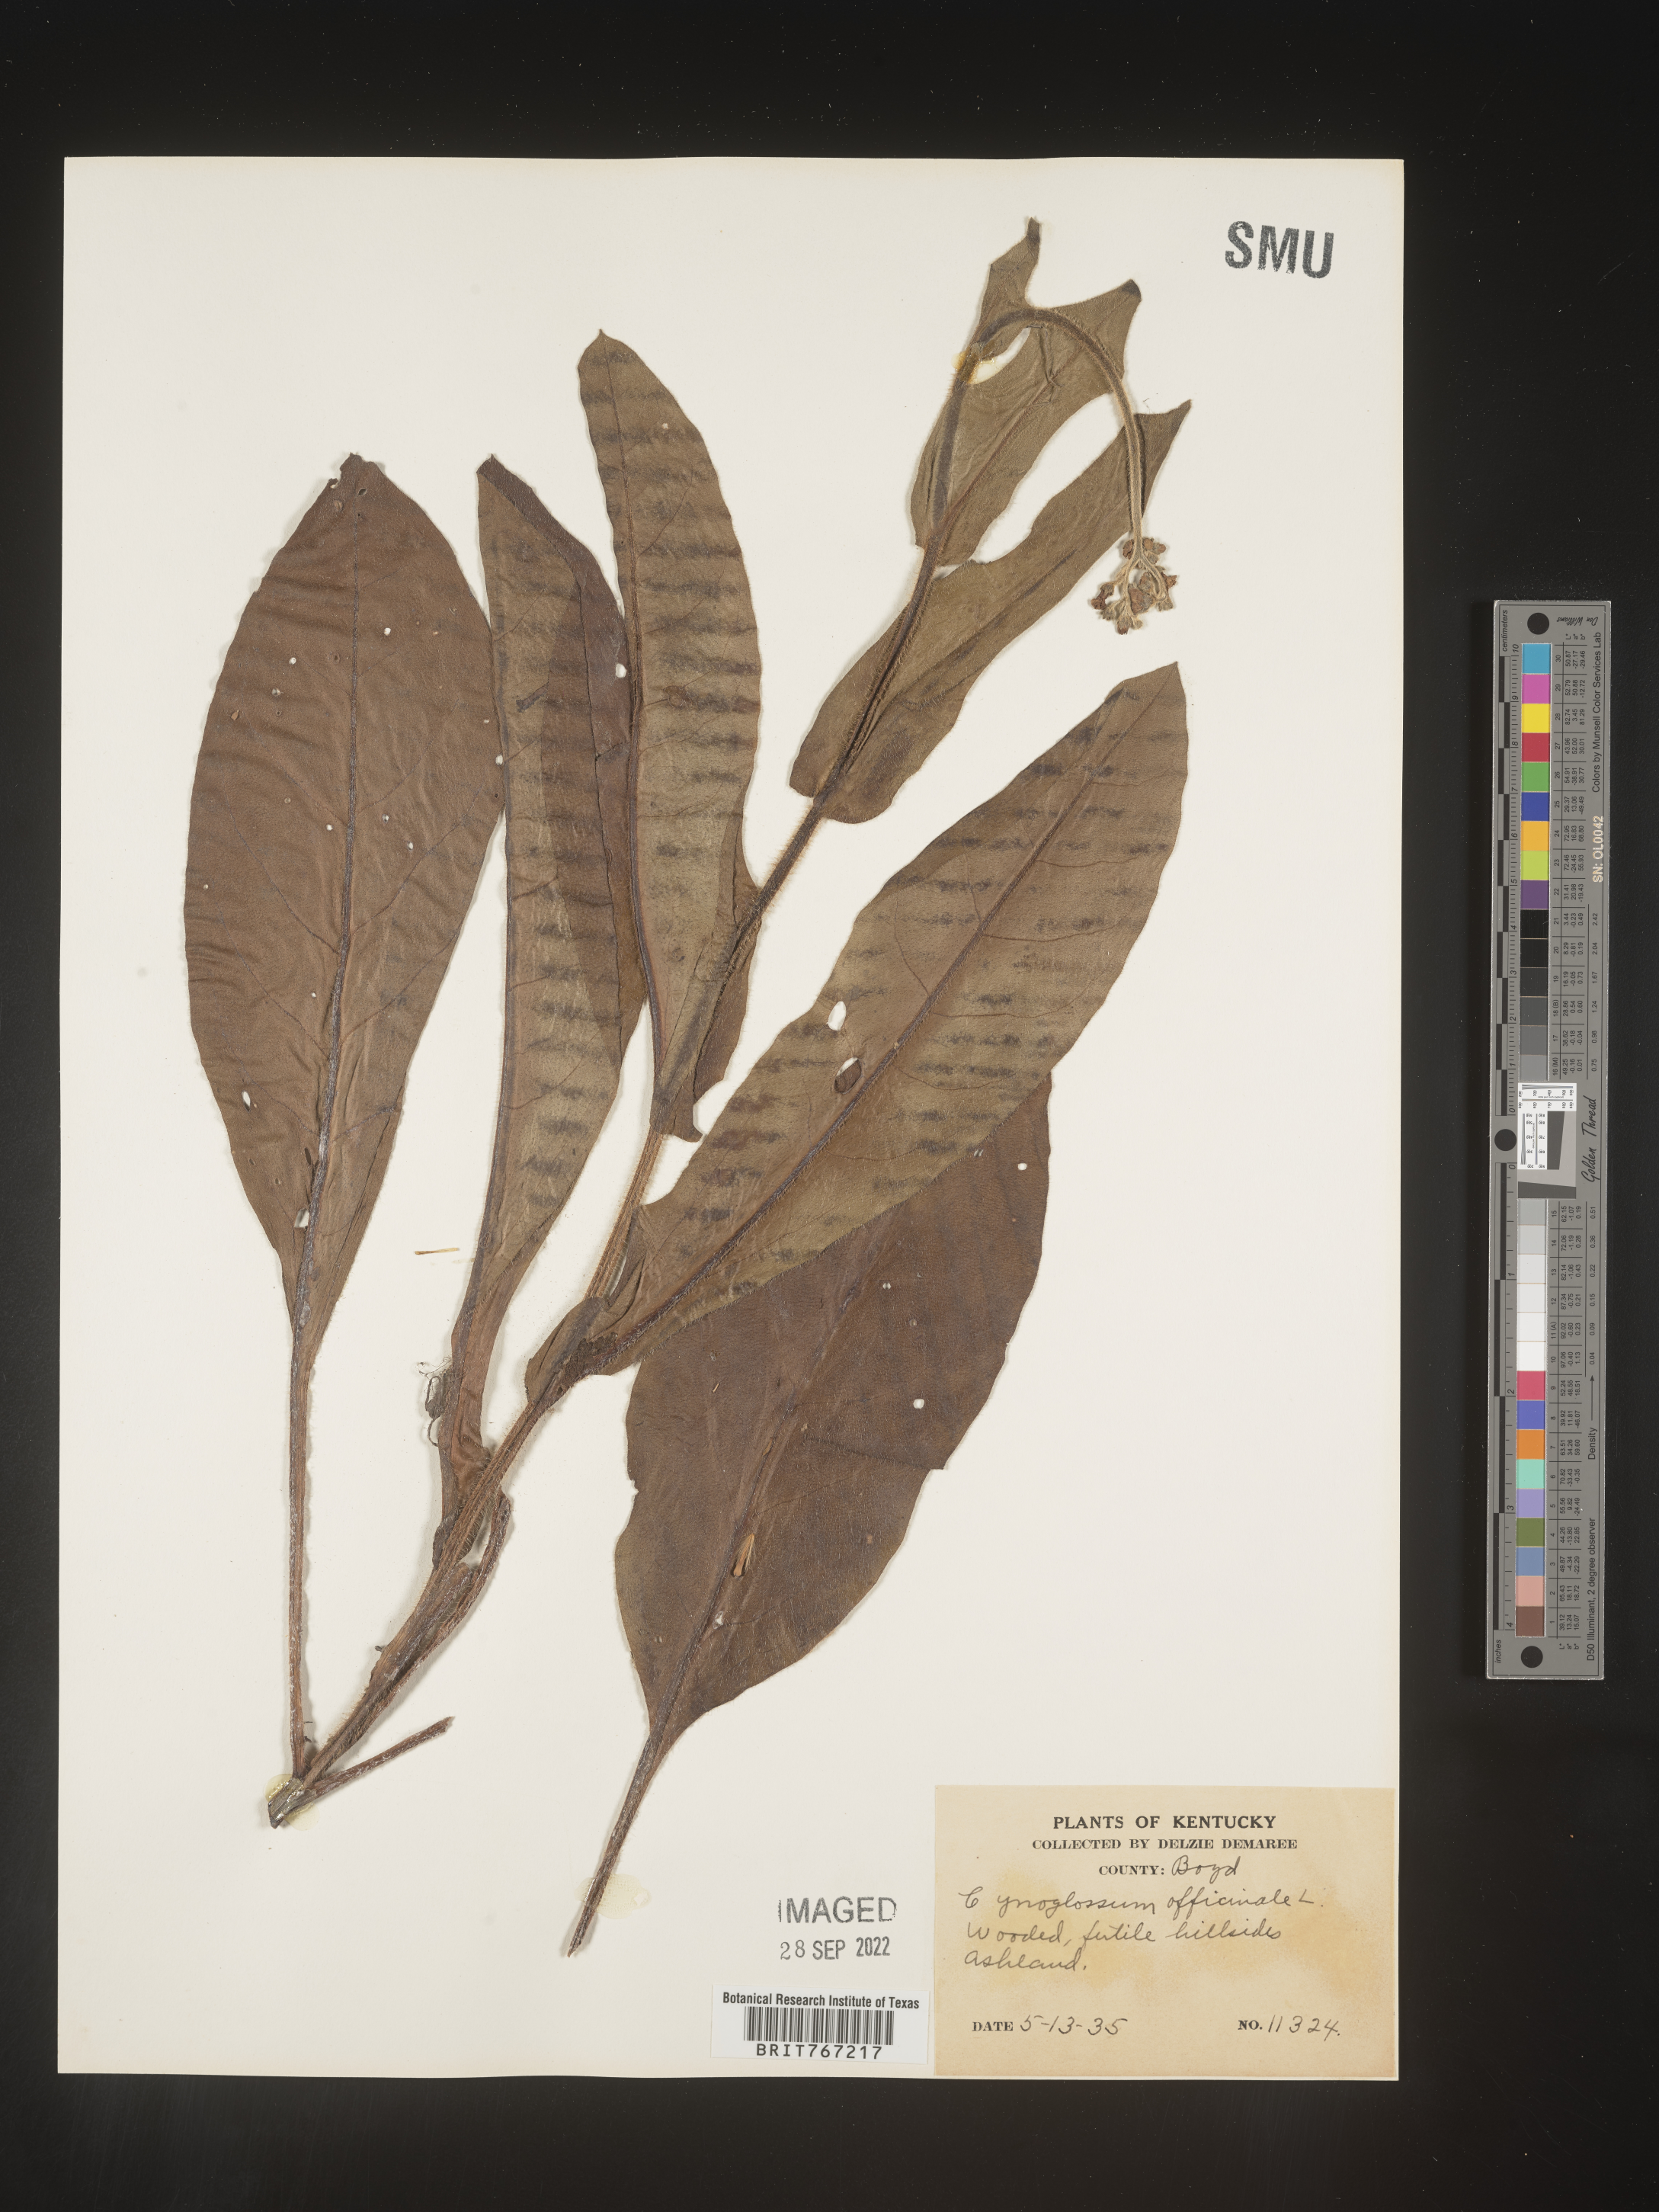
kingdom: Plantae
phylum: Tracheophyta
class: Magnoliopsida
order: Boraginales
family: Boraginaceae
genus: Cynoglossum
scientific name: Cynoglossum officinale
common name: Hound's-tongue
